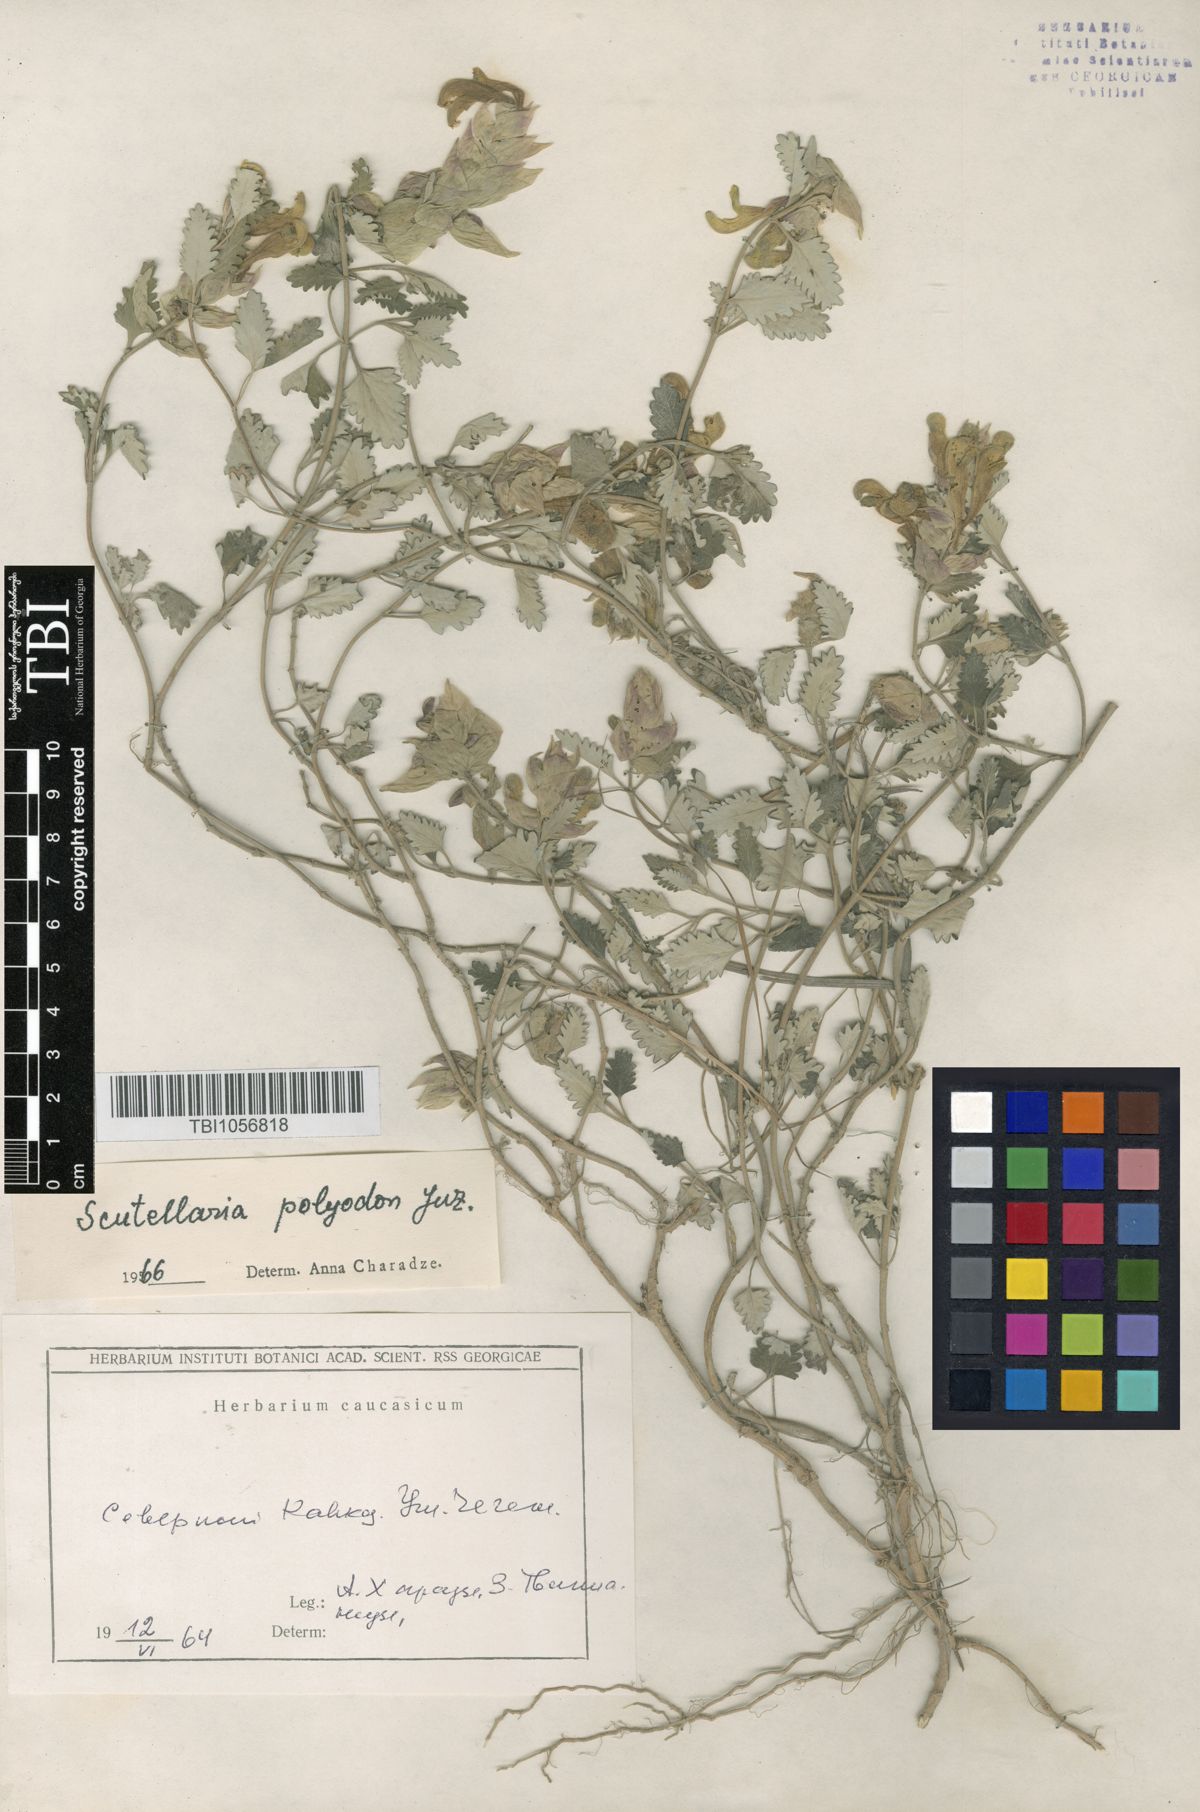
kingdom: Plantae
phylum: Tracheophyta
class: Magnoliopsida
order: Lamiales
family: Lamiaceae
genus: Scutellaria
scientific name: Scutellaria caucasica
